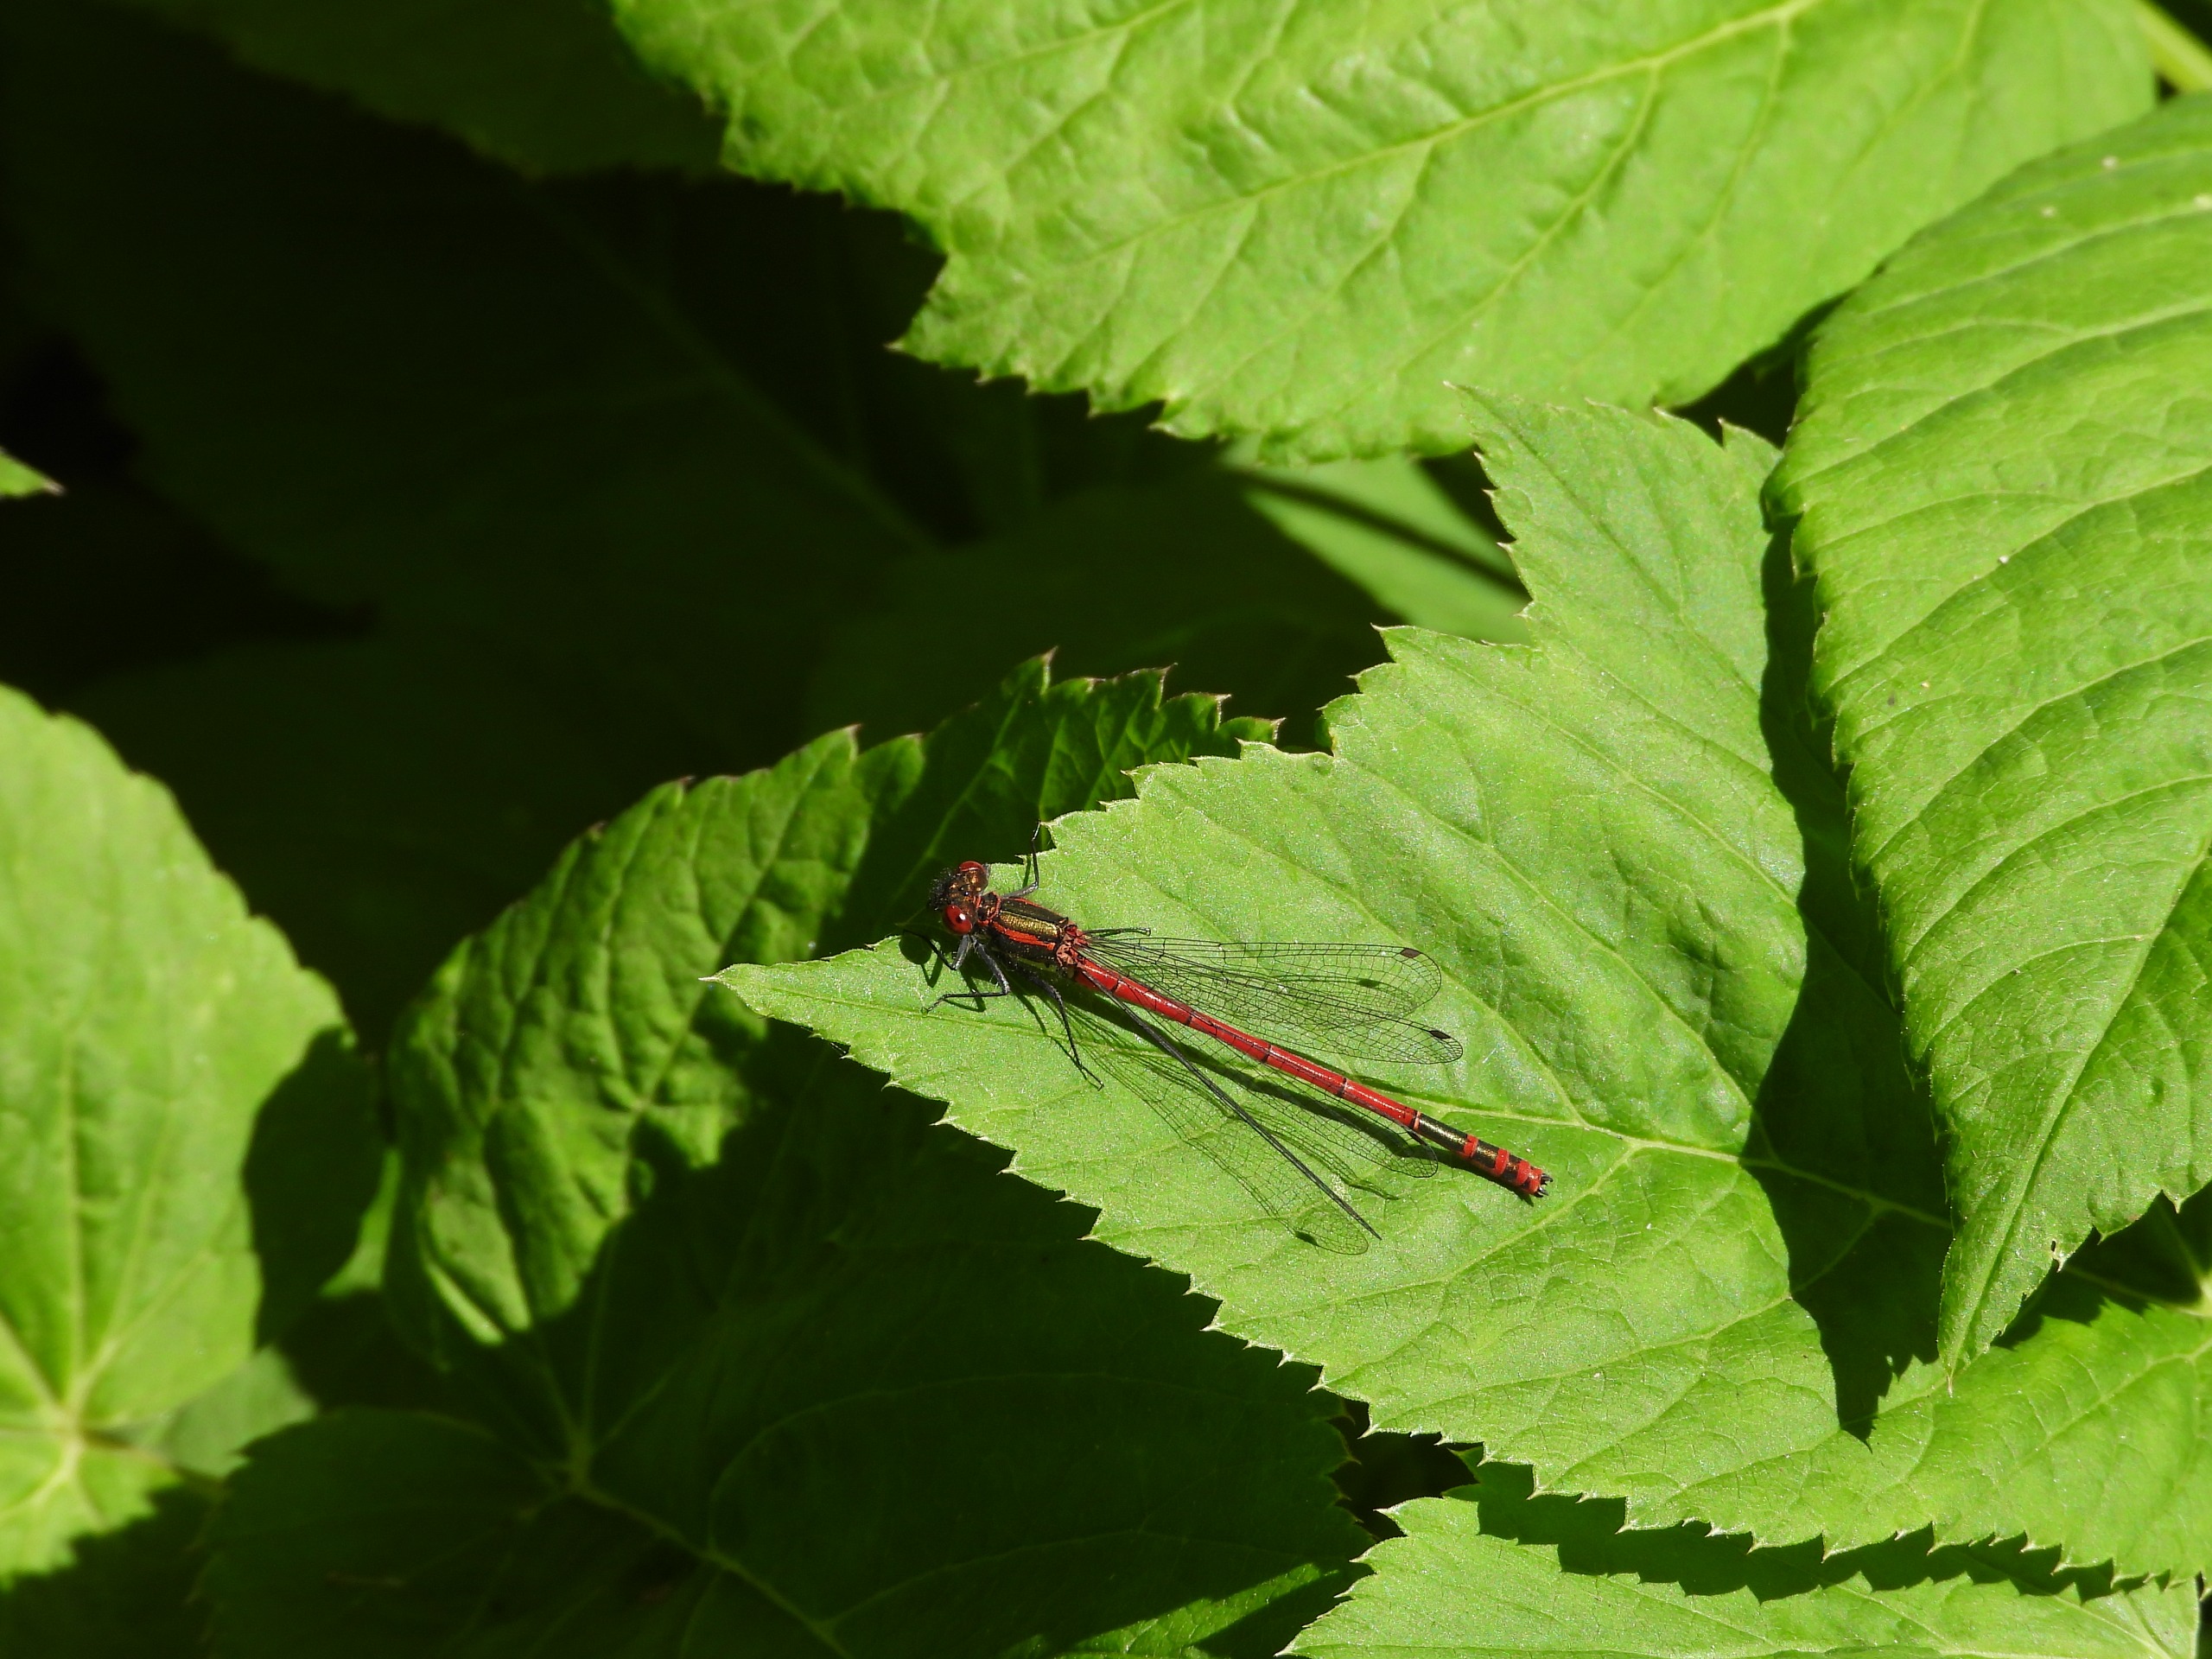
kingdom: Animalia
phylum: Arthropoda
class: Insecta
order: Odonata
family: Coenagrionidae
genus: Pyrrhosoma
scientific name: Pyrrhosoma nymphula
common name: Rød vandnymfe
